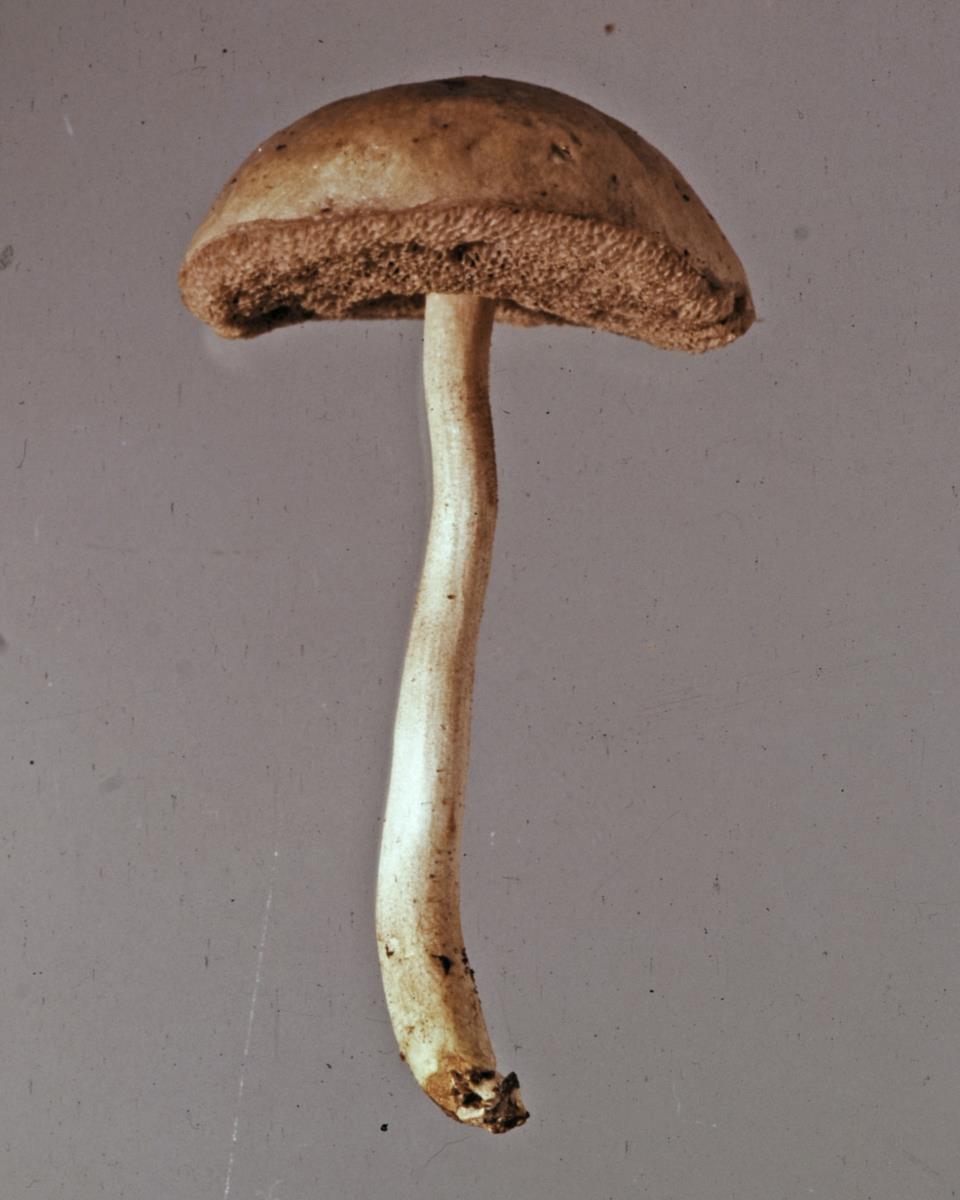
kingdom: Fungi
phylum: Basidiomycota
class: Agaricomycetes
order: Boletales
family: Boletaceae
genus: Fistulinella
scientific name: Fistulinella viscida
